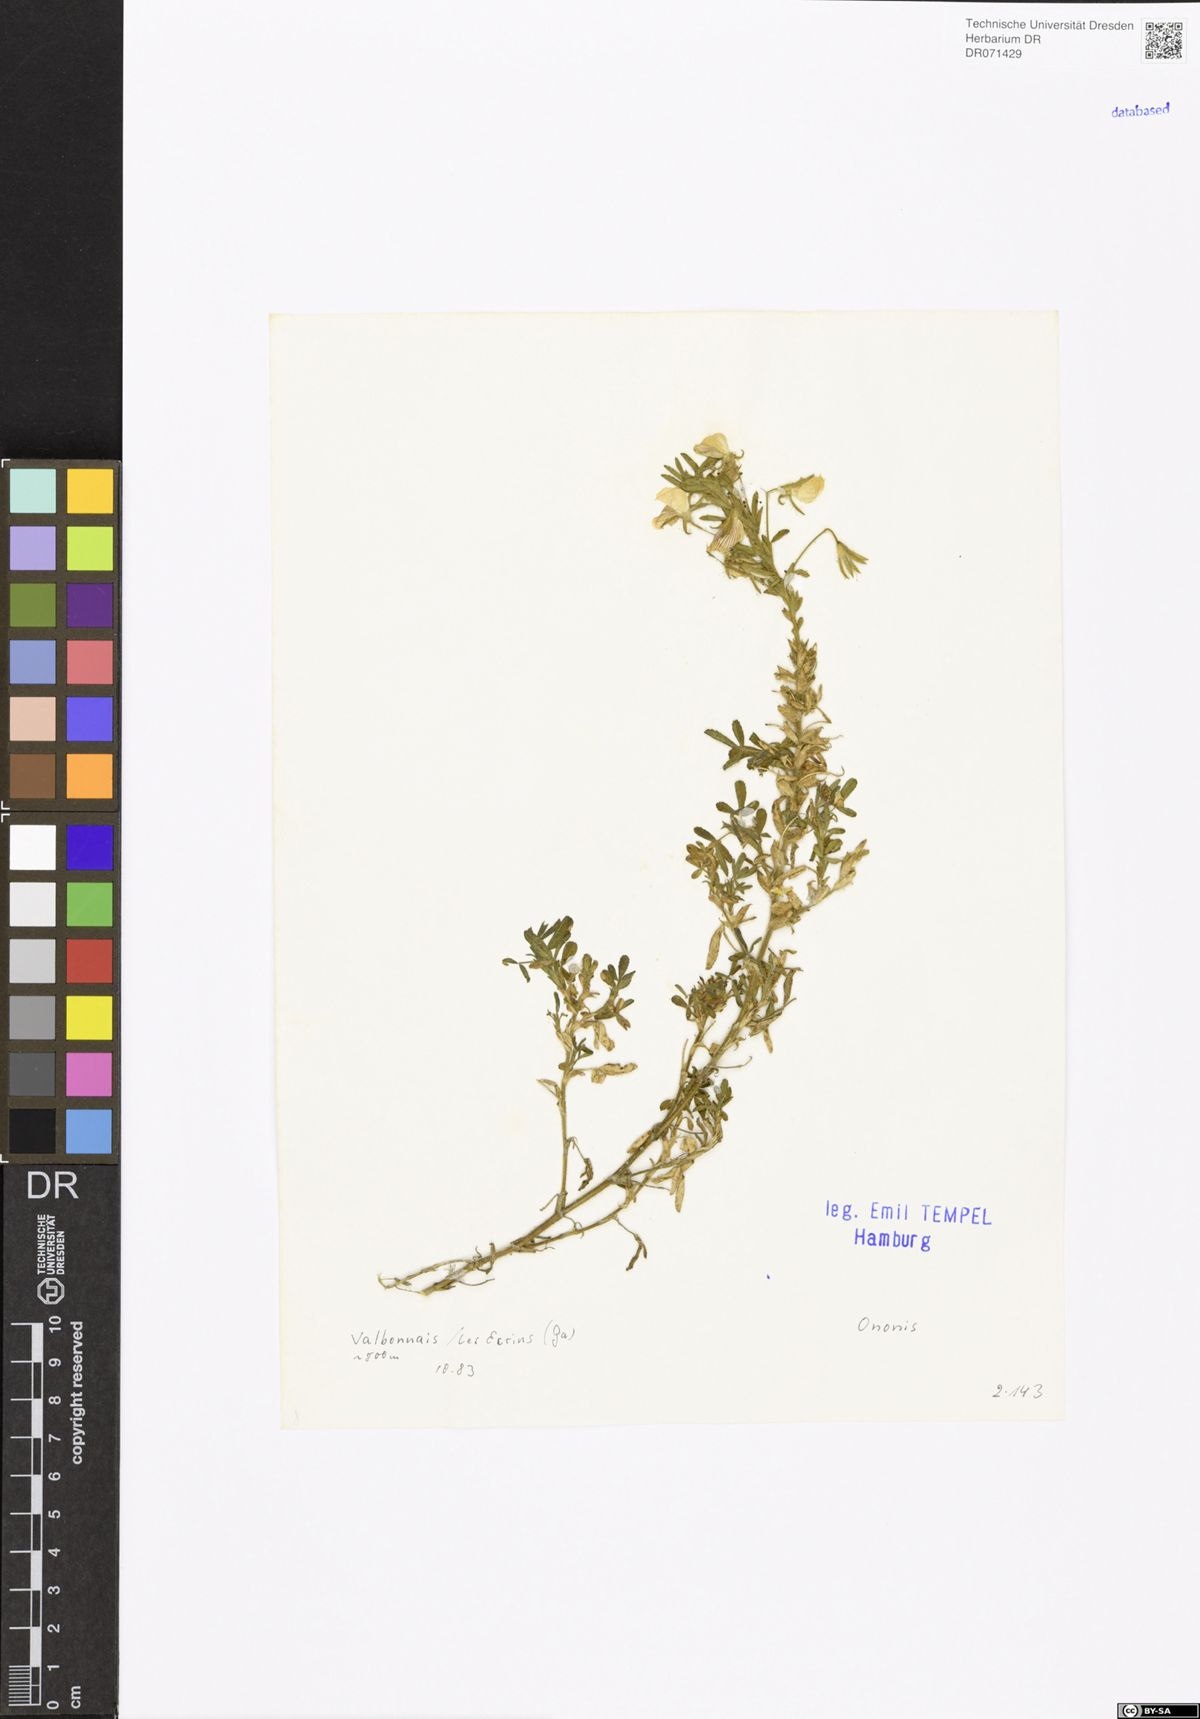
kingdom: Plantae
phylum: Tracheophyta
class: Magnoliopsida
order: Fabales
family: Fabaceae
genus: Ononis
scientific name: Ononis
